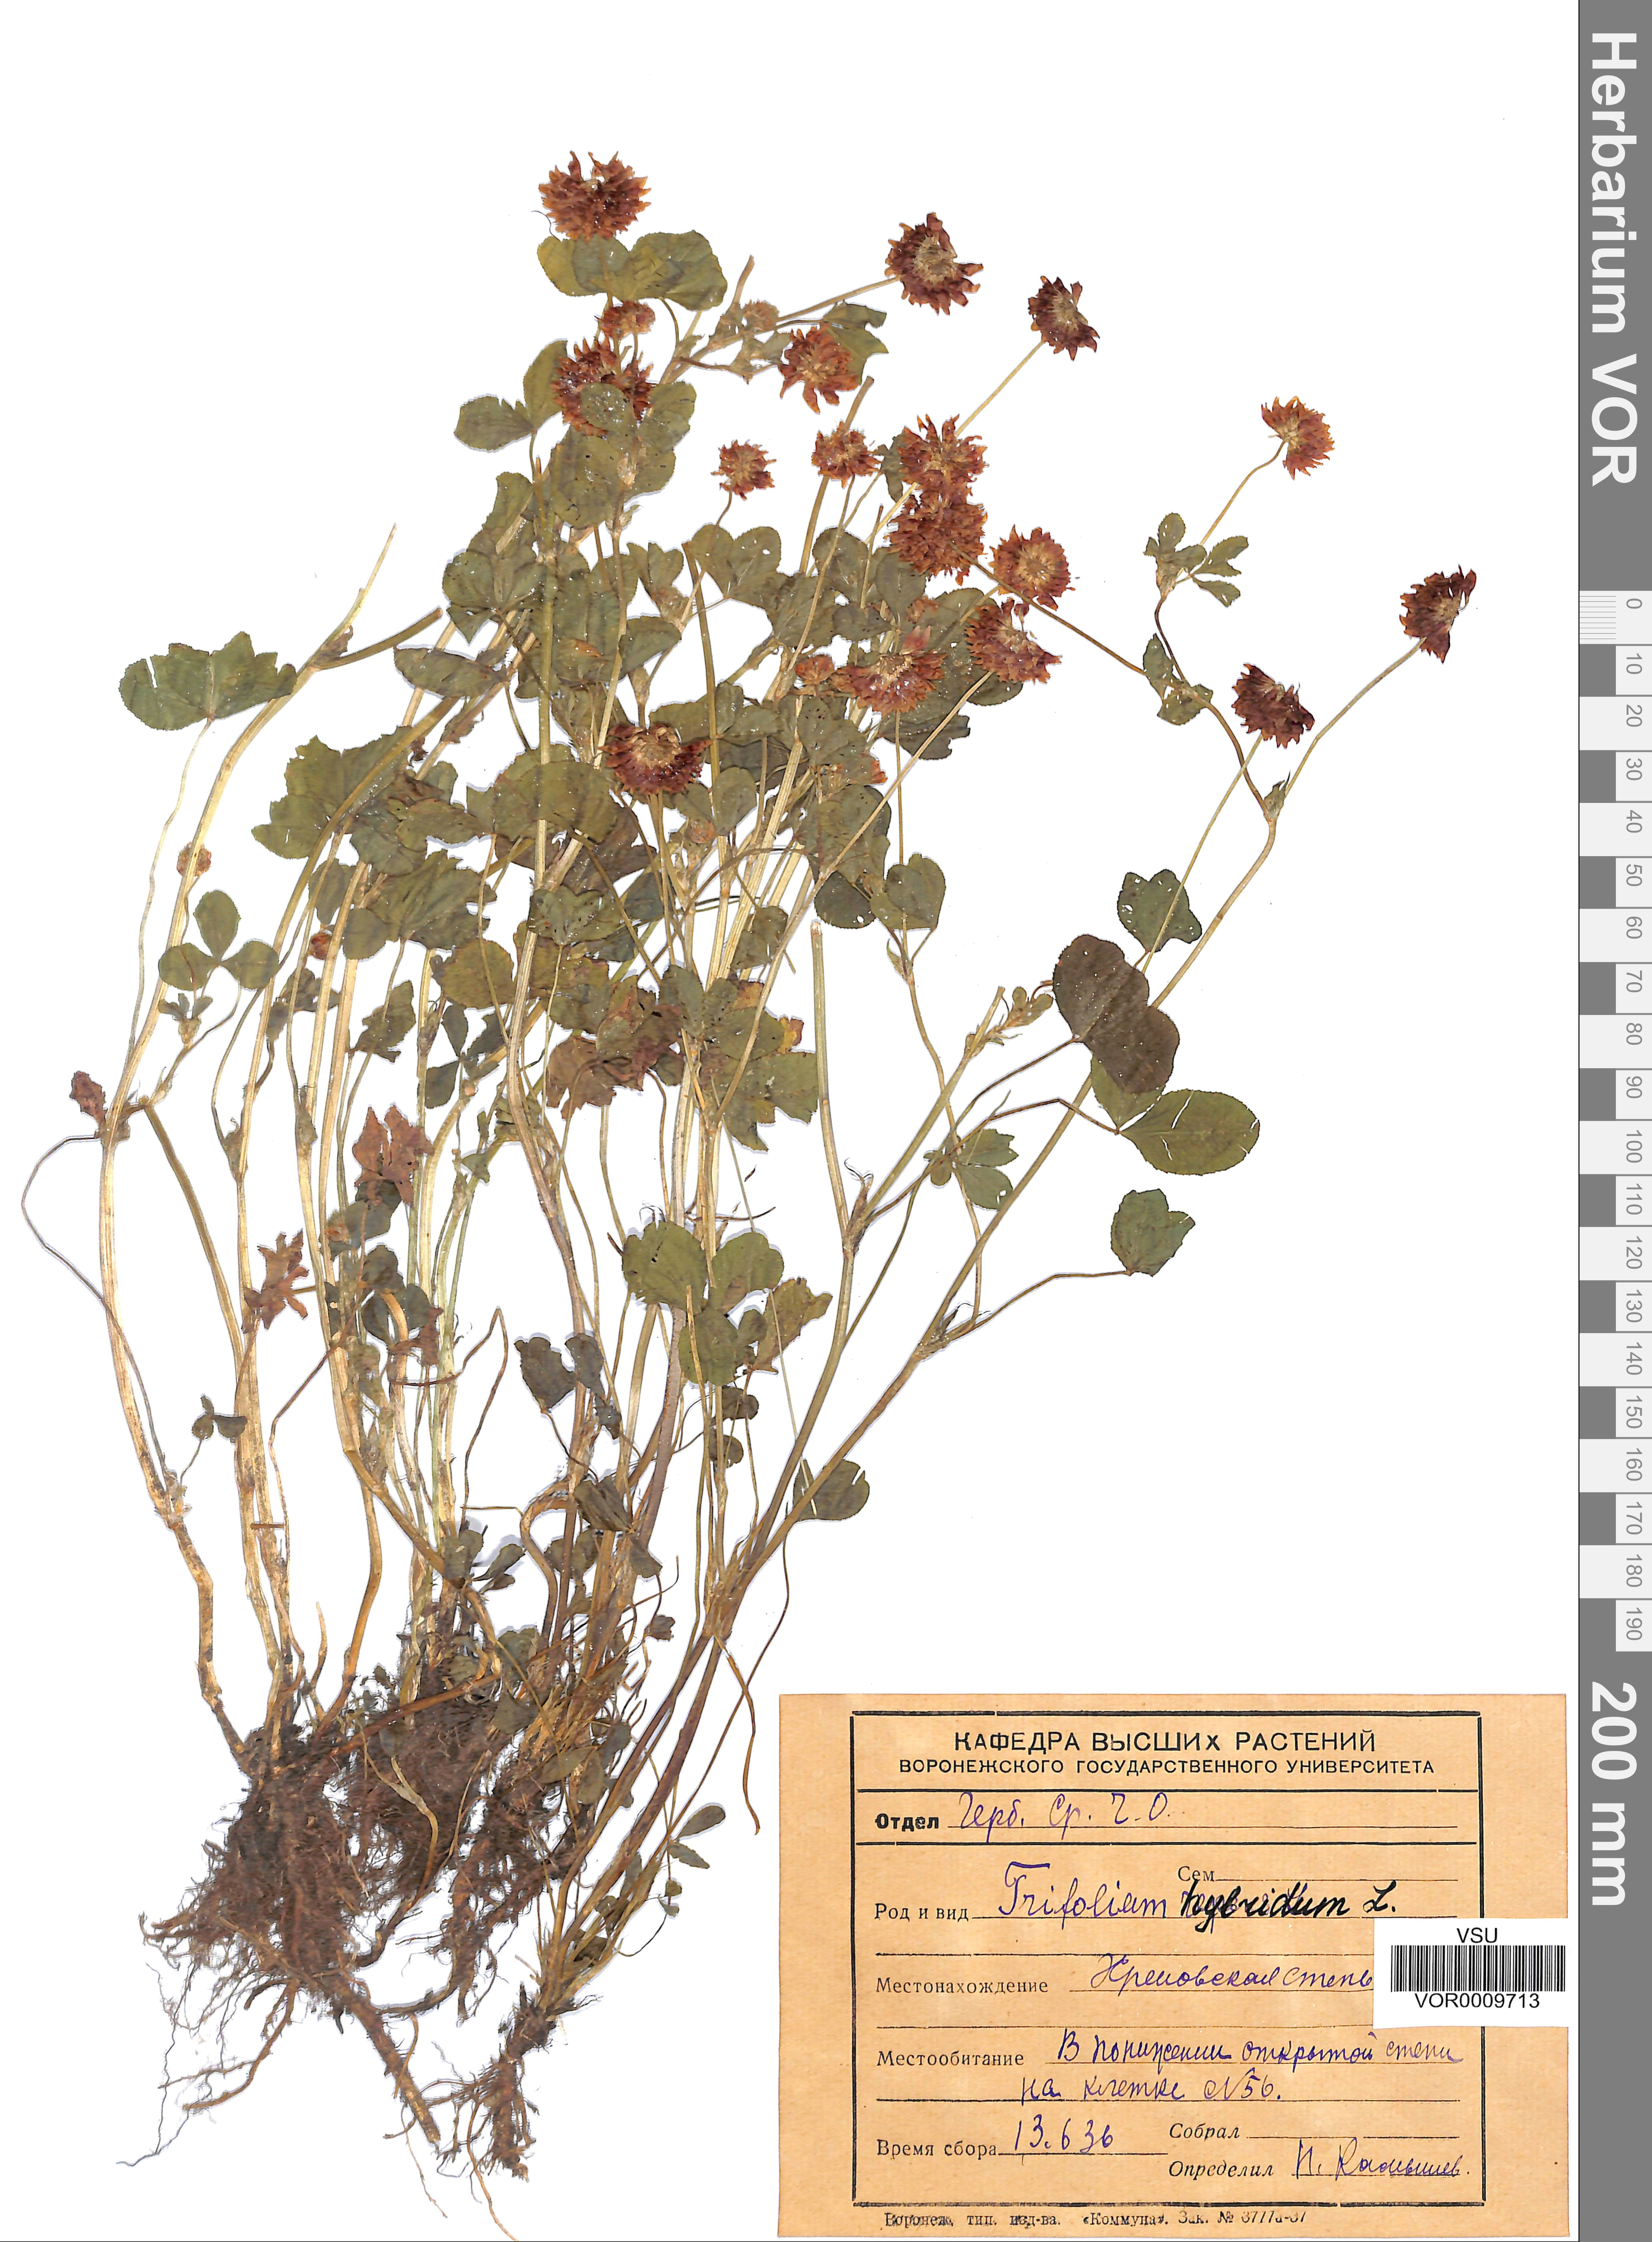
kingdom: Plantae
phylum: Tracheophyta
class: Magnoliopsida
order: Fabales
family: Fabaceae
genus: Trifolium
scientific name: Trifolium hybridum
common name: Alsike clover
